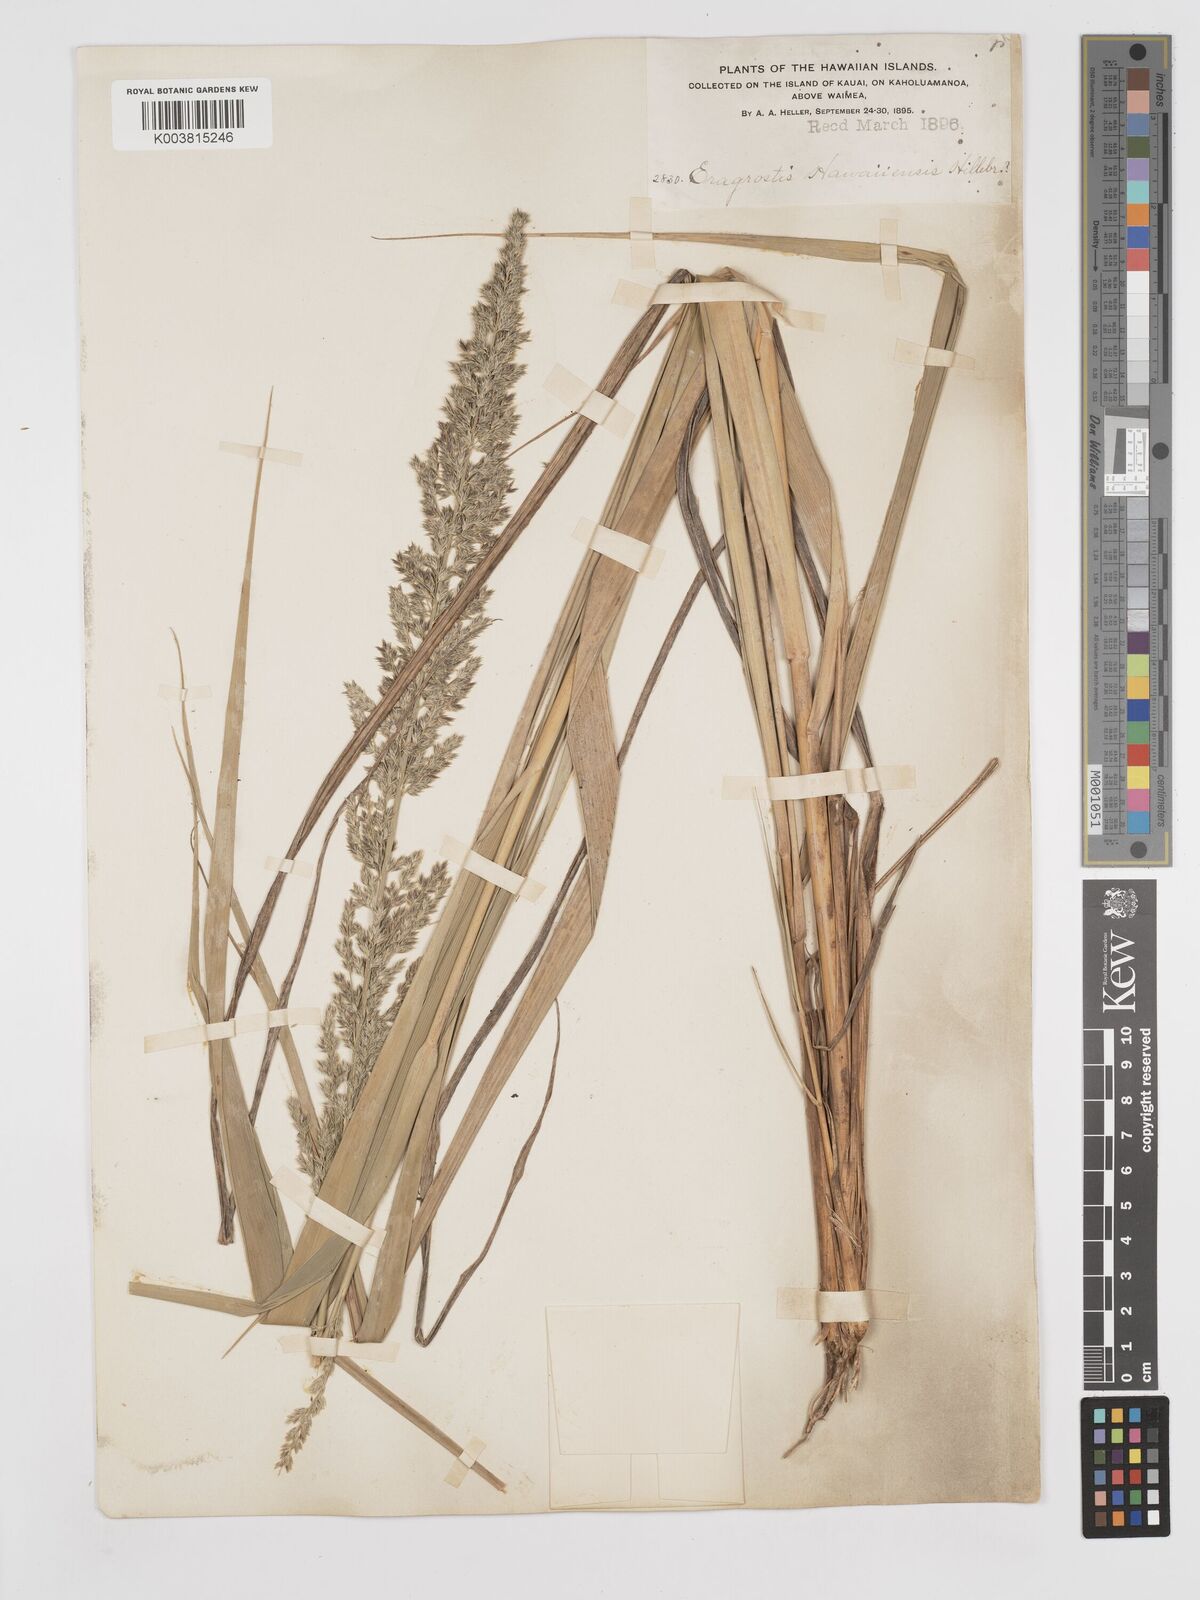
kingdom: Plantae
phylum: Tracheophyta
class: Liliopsida
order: Poales
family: Poaceae
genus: Eragrostis
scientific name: Eragrostis variabilis
